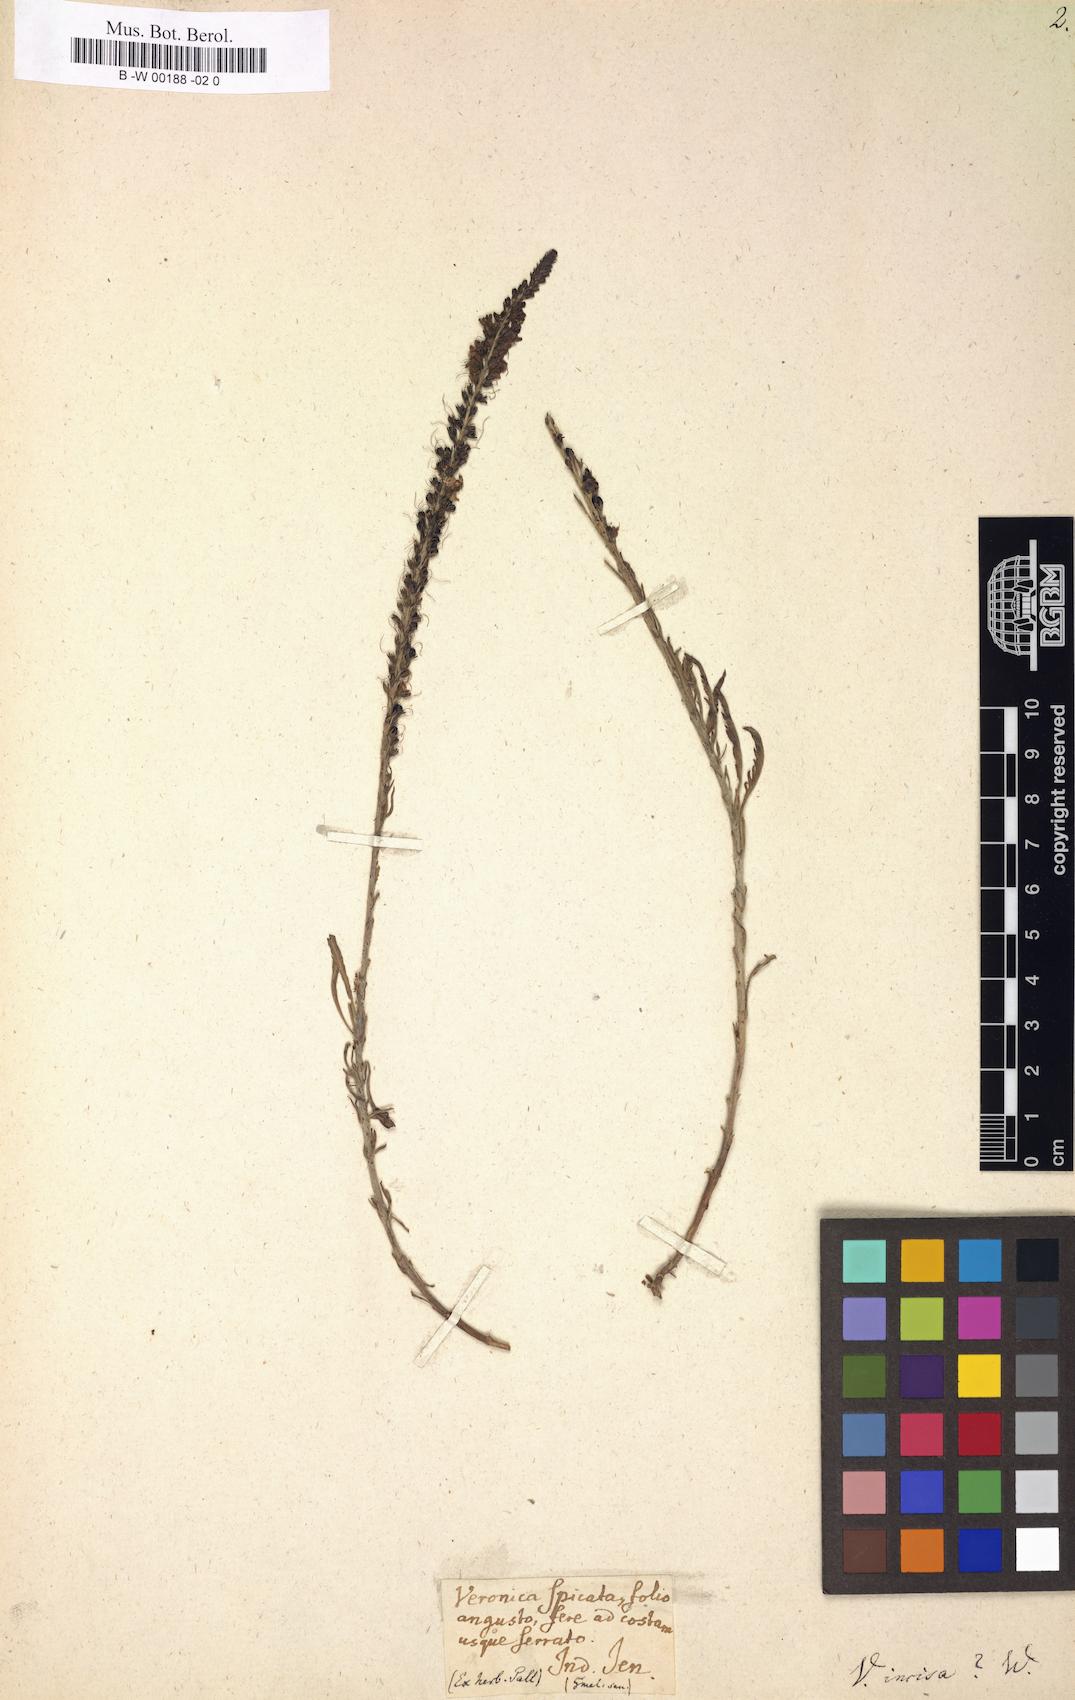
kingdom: Plantae
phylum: Tracheophyta
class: Magnoliopsida
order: Lamiales
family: Plantaginaceae
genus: Veronica
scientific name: Veronica
